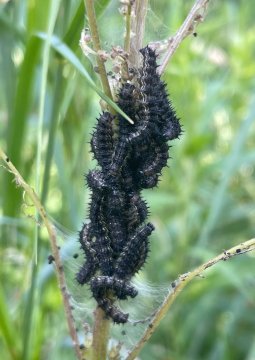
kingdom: Animalia
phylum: Arthropoda
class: Insecta
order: Lepidoptera
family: Nymphalidae
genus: Aglais
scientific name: Aglais milberti
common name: Milbert's Tortoiseshell
